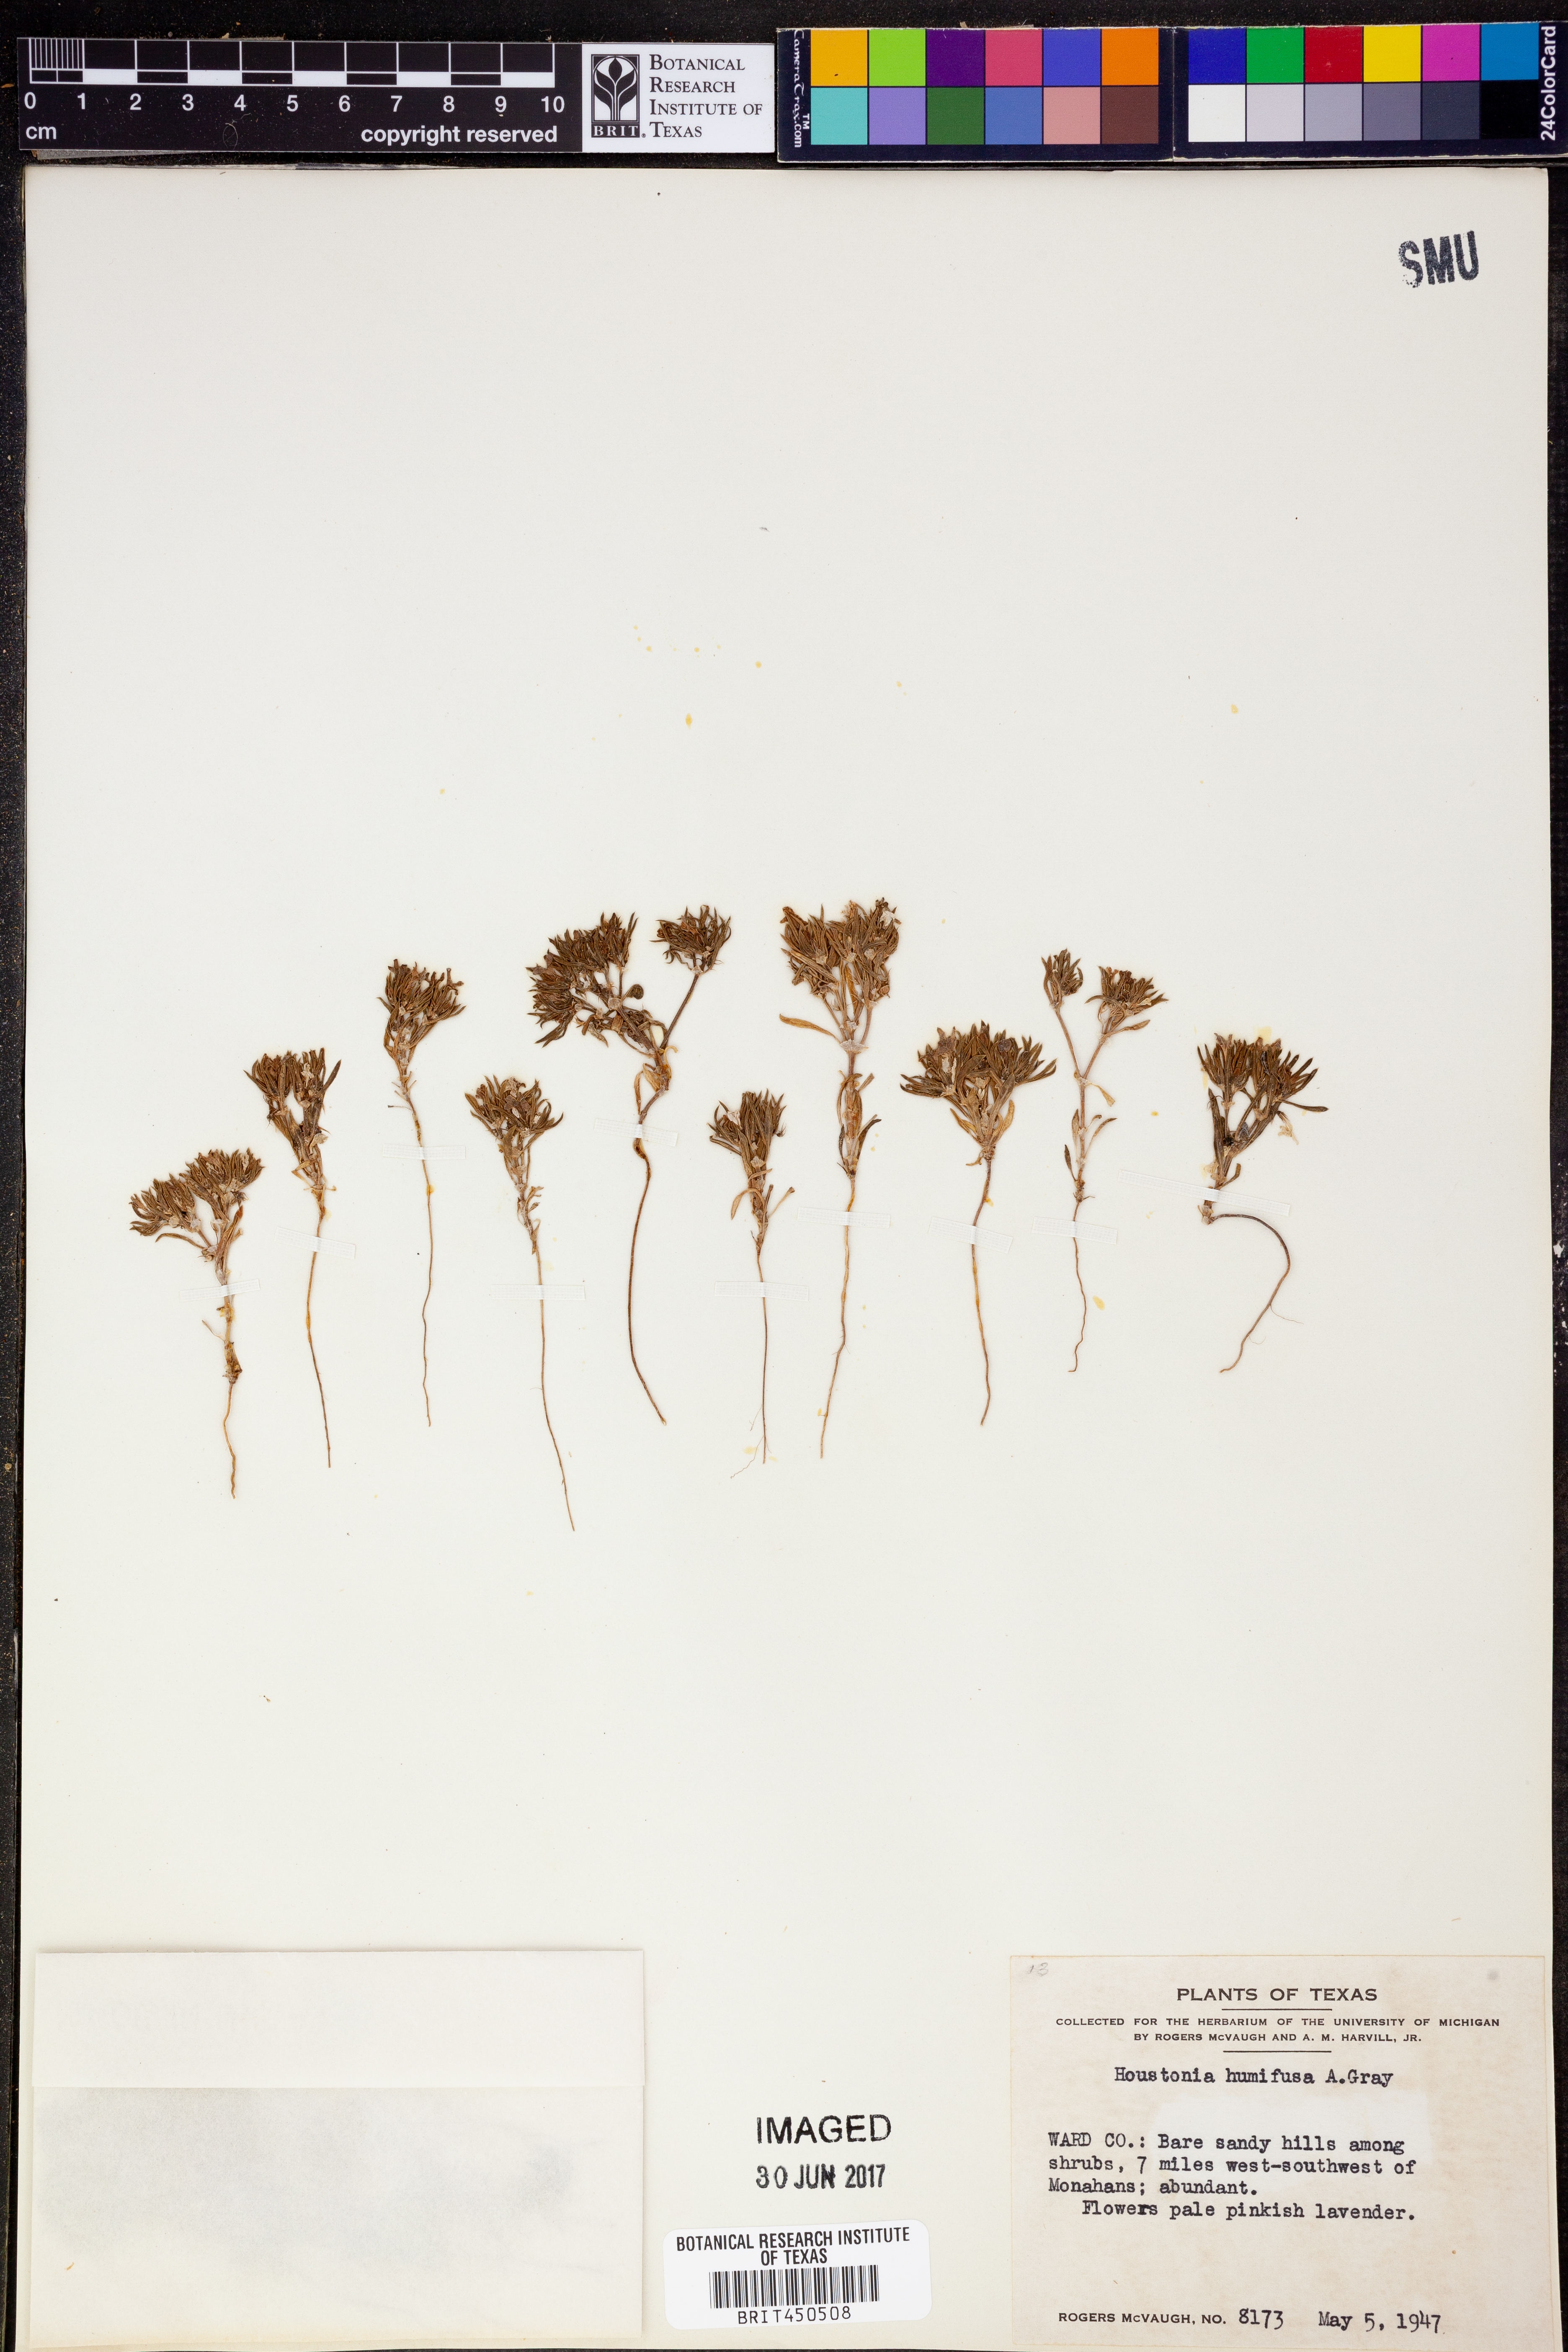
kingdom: Plantae
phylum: Tracheophyta
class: Magnoliopsida
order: Gentianales
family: Rubiaceae
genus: Houstonia
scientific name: Houstonia humifusa
